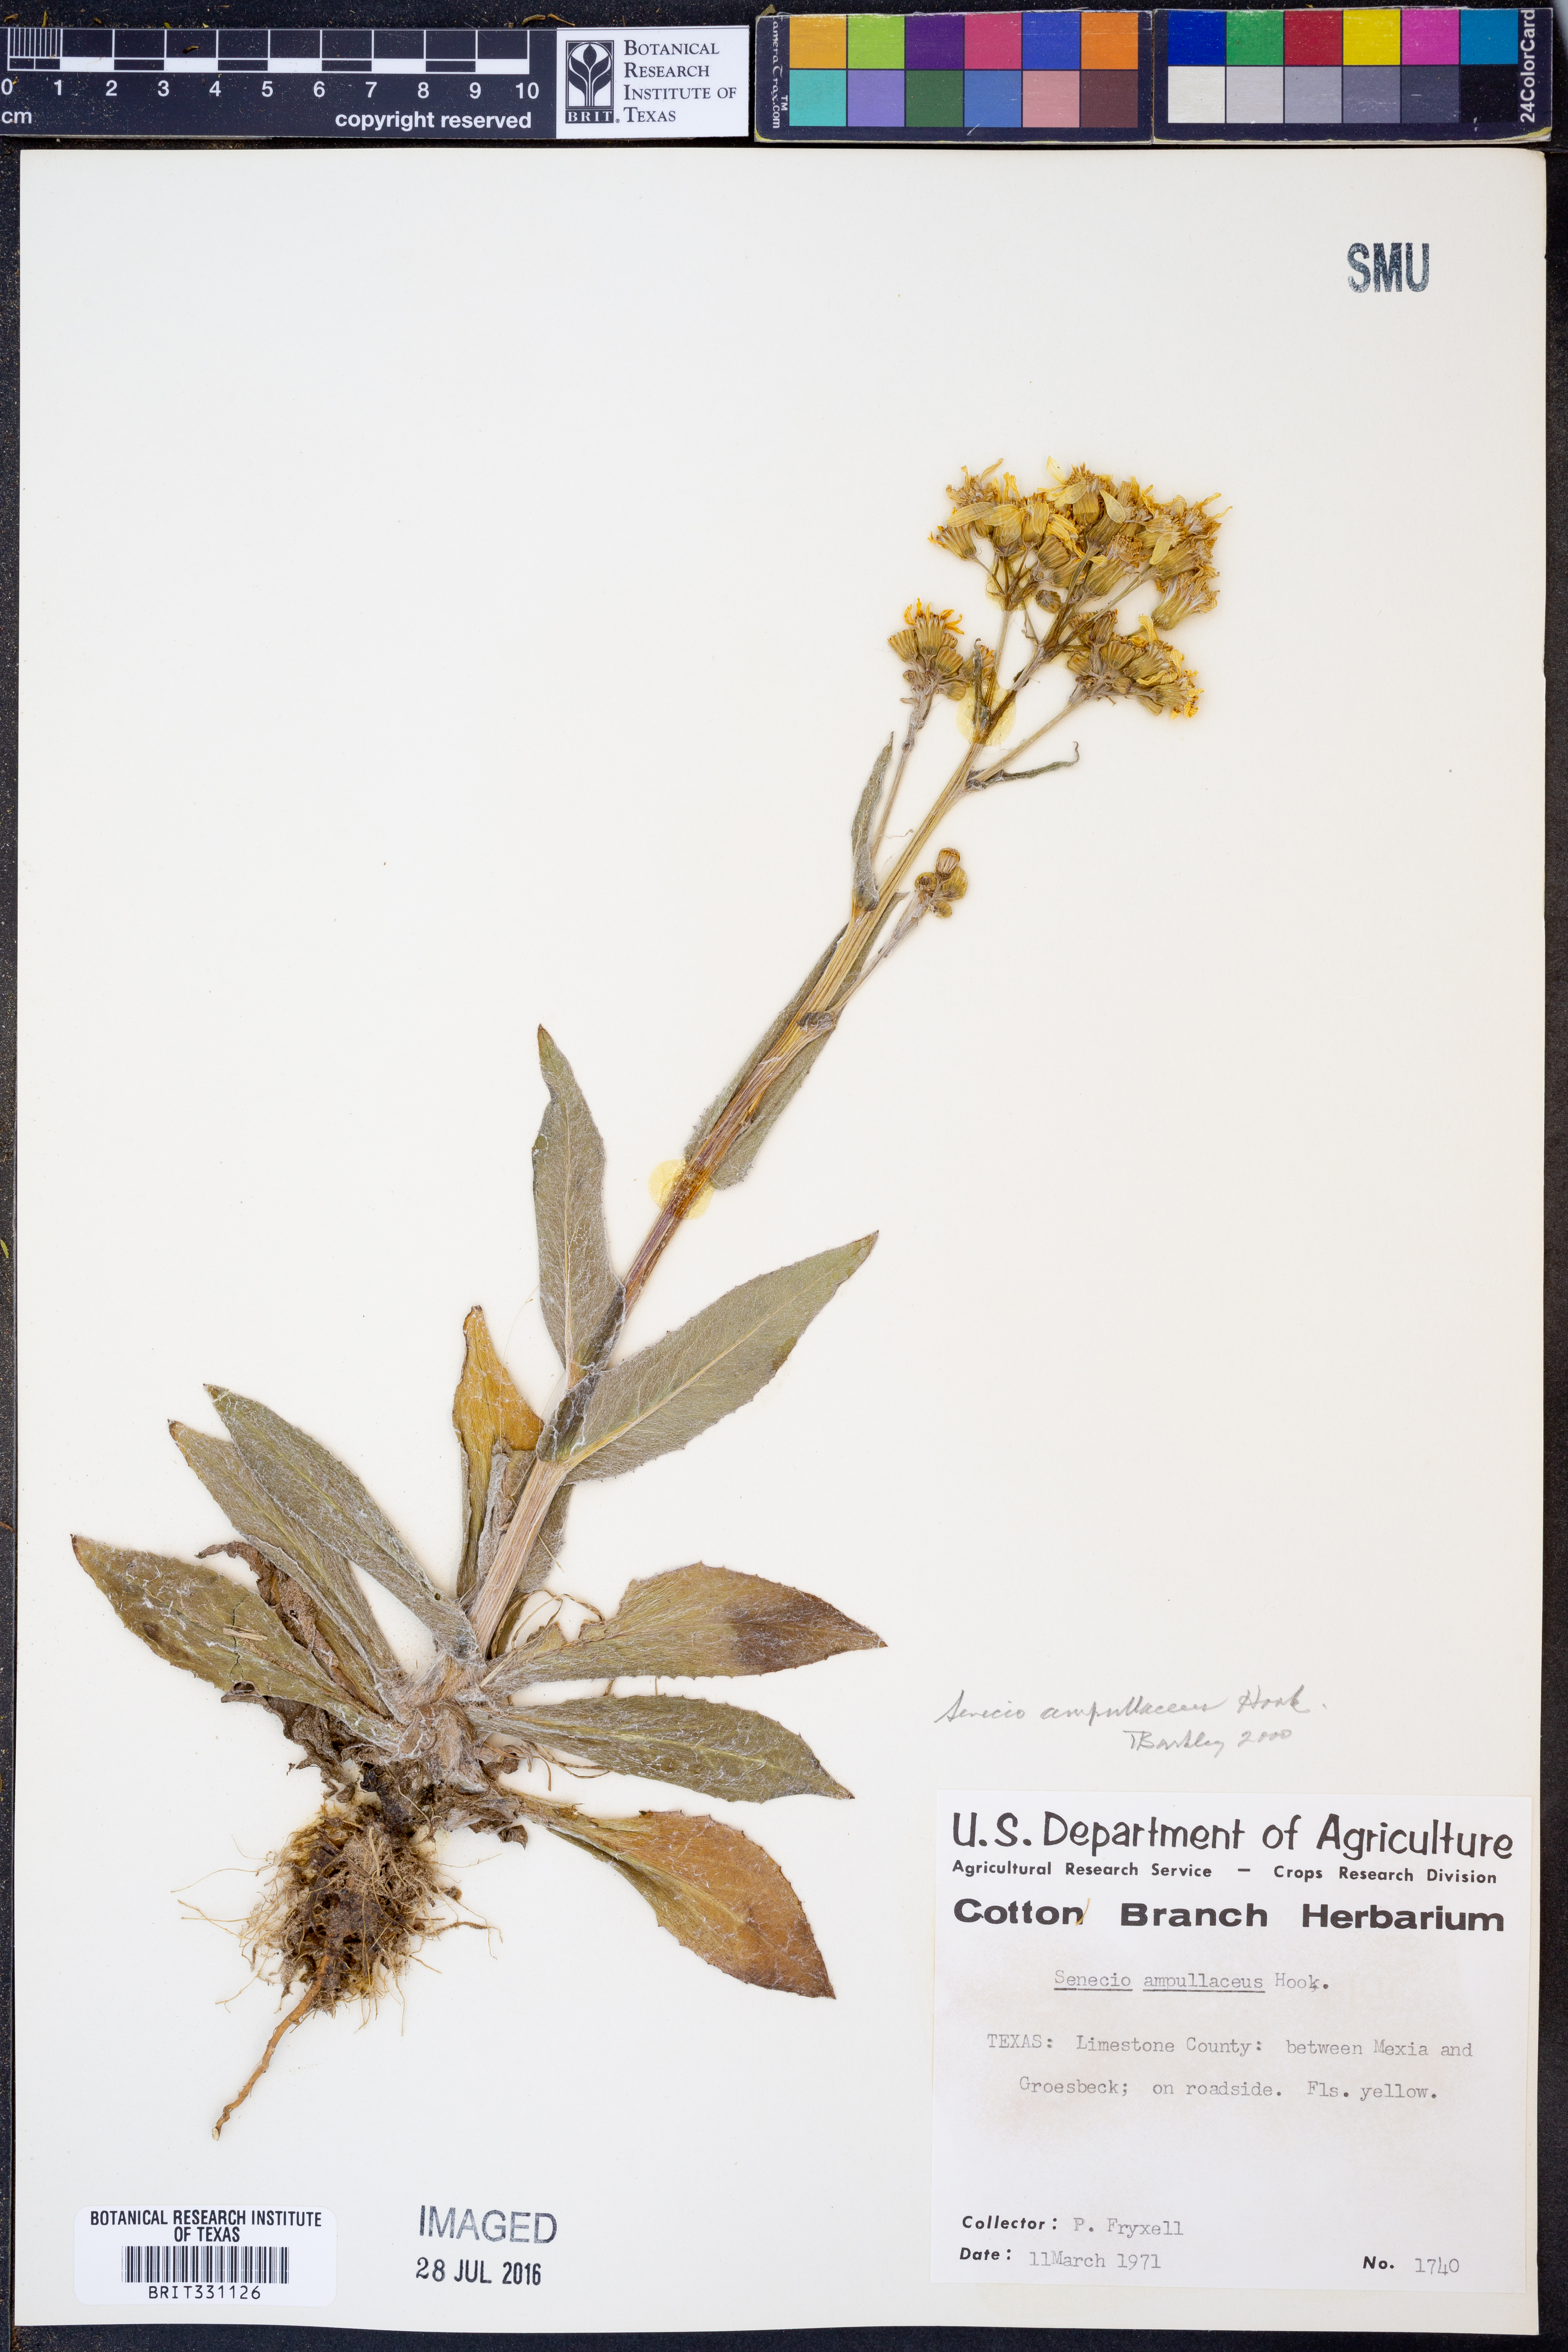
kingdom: Plantae
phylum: Tracheophyta
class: Magnoliopsida
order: Asterales
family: Asteraceae
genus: Senecio
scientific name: Senecio ampullaceus
